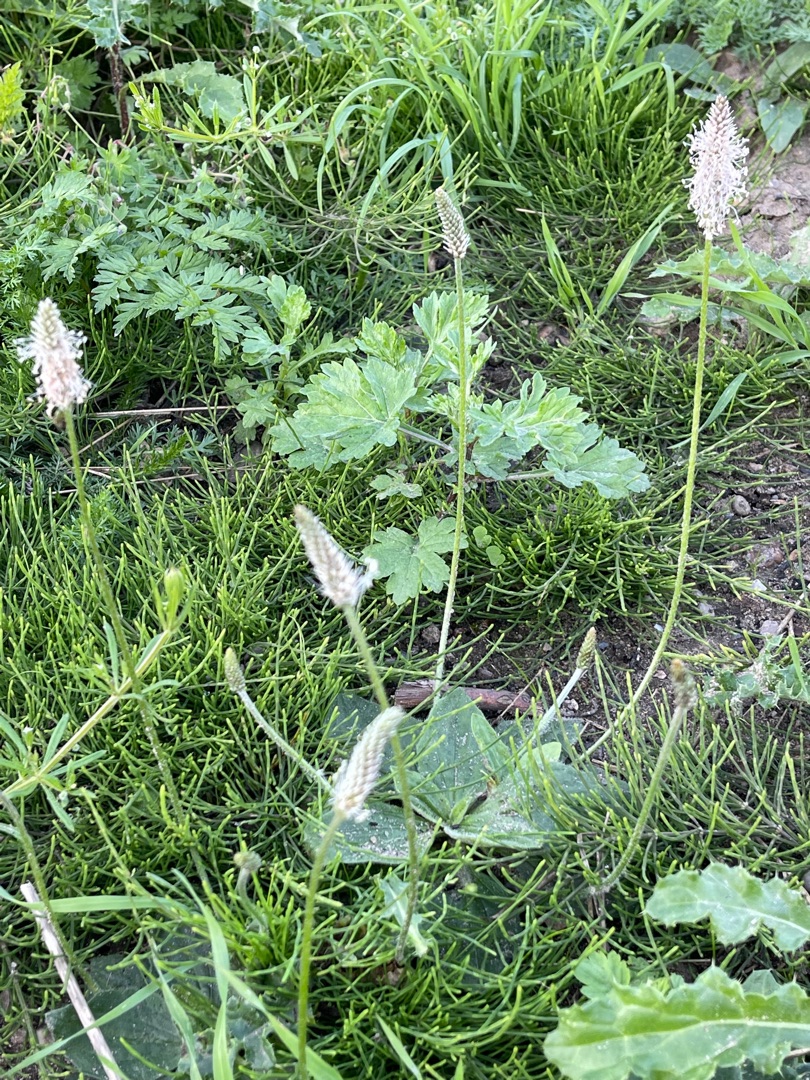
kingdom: Plantae
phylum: Tracheophyta
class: Magnoliopsida
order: Lamiales
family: Plantaginaceae
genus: Plantago
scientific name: Plantago media
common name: Dunet vejbred
